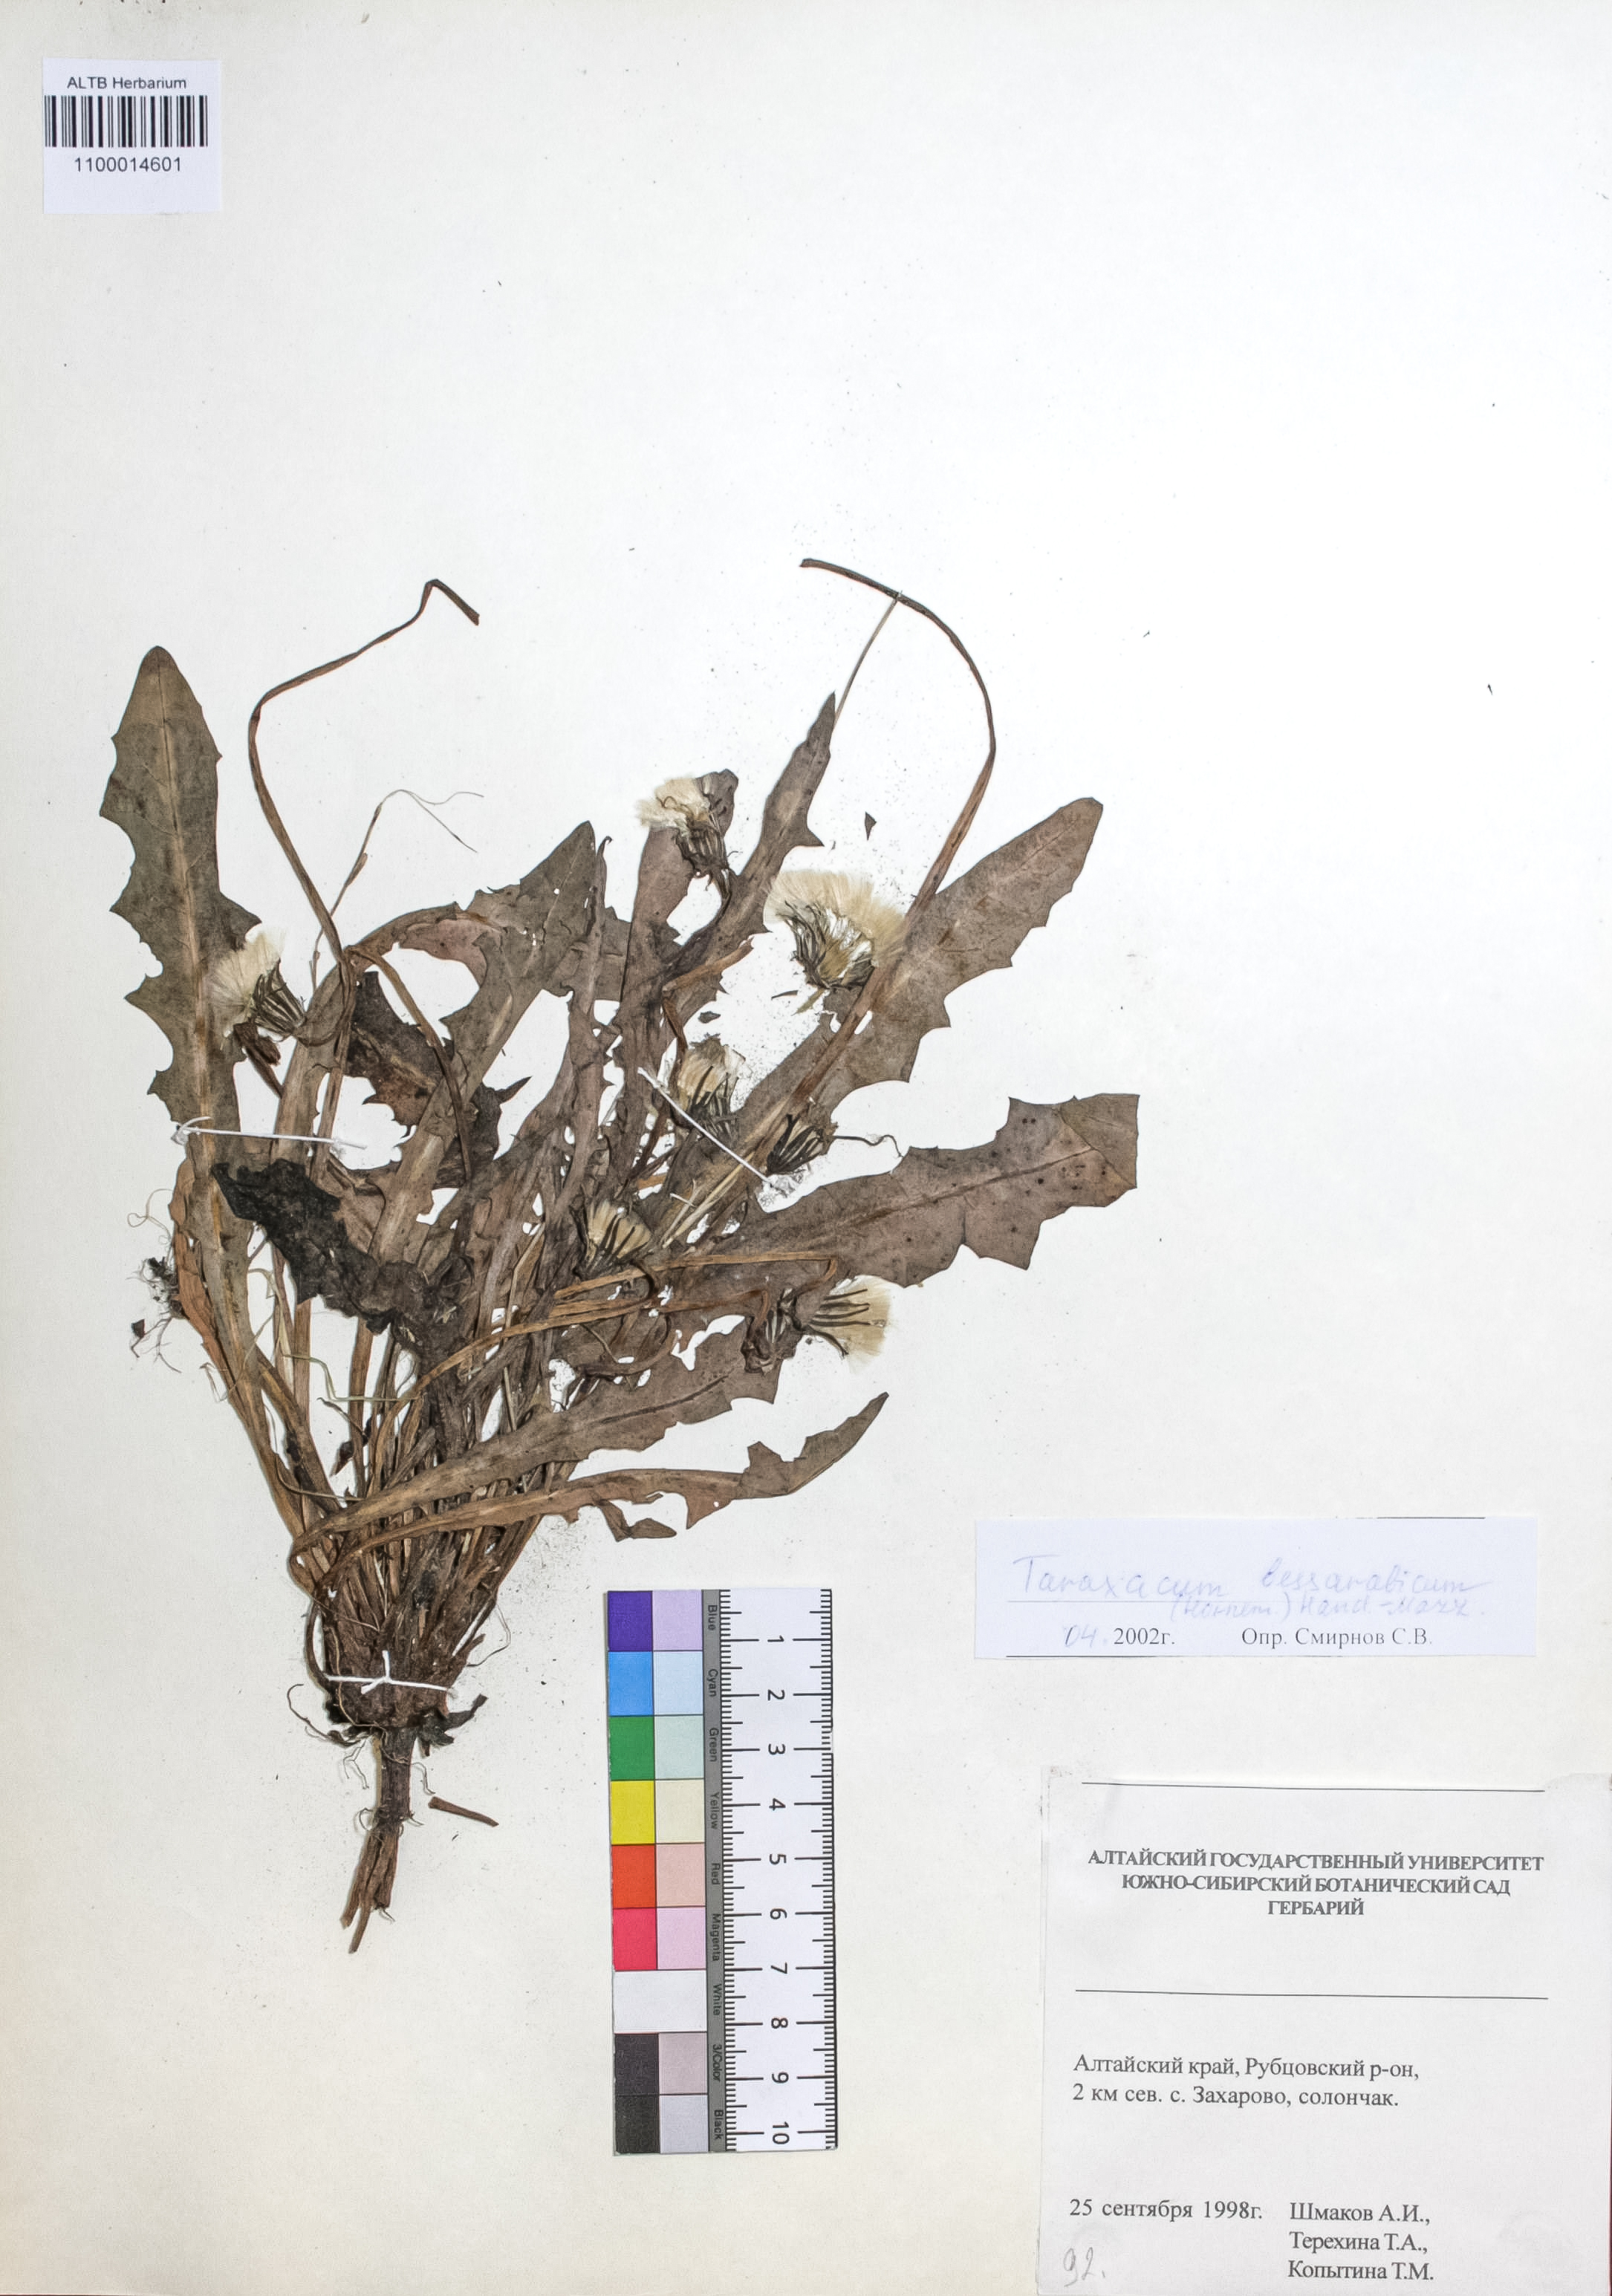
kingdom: Plantae
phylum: Tracheophyta
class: Magnoliopsida
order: Asterales
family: Asteraceae
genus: Taraxacum
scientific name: Taraxacum bessarabicum
